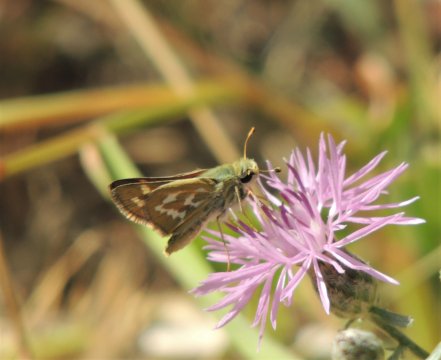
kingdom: Animalia
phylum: Arthropoda
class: Insecta
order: Lepidoptera
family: Hesperiidae
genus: Hesperia
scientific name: Hesperia comma
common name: Western Branded Skipper
